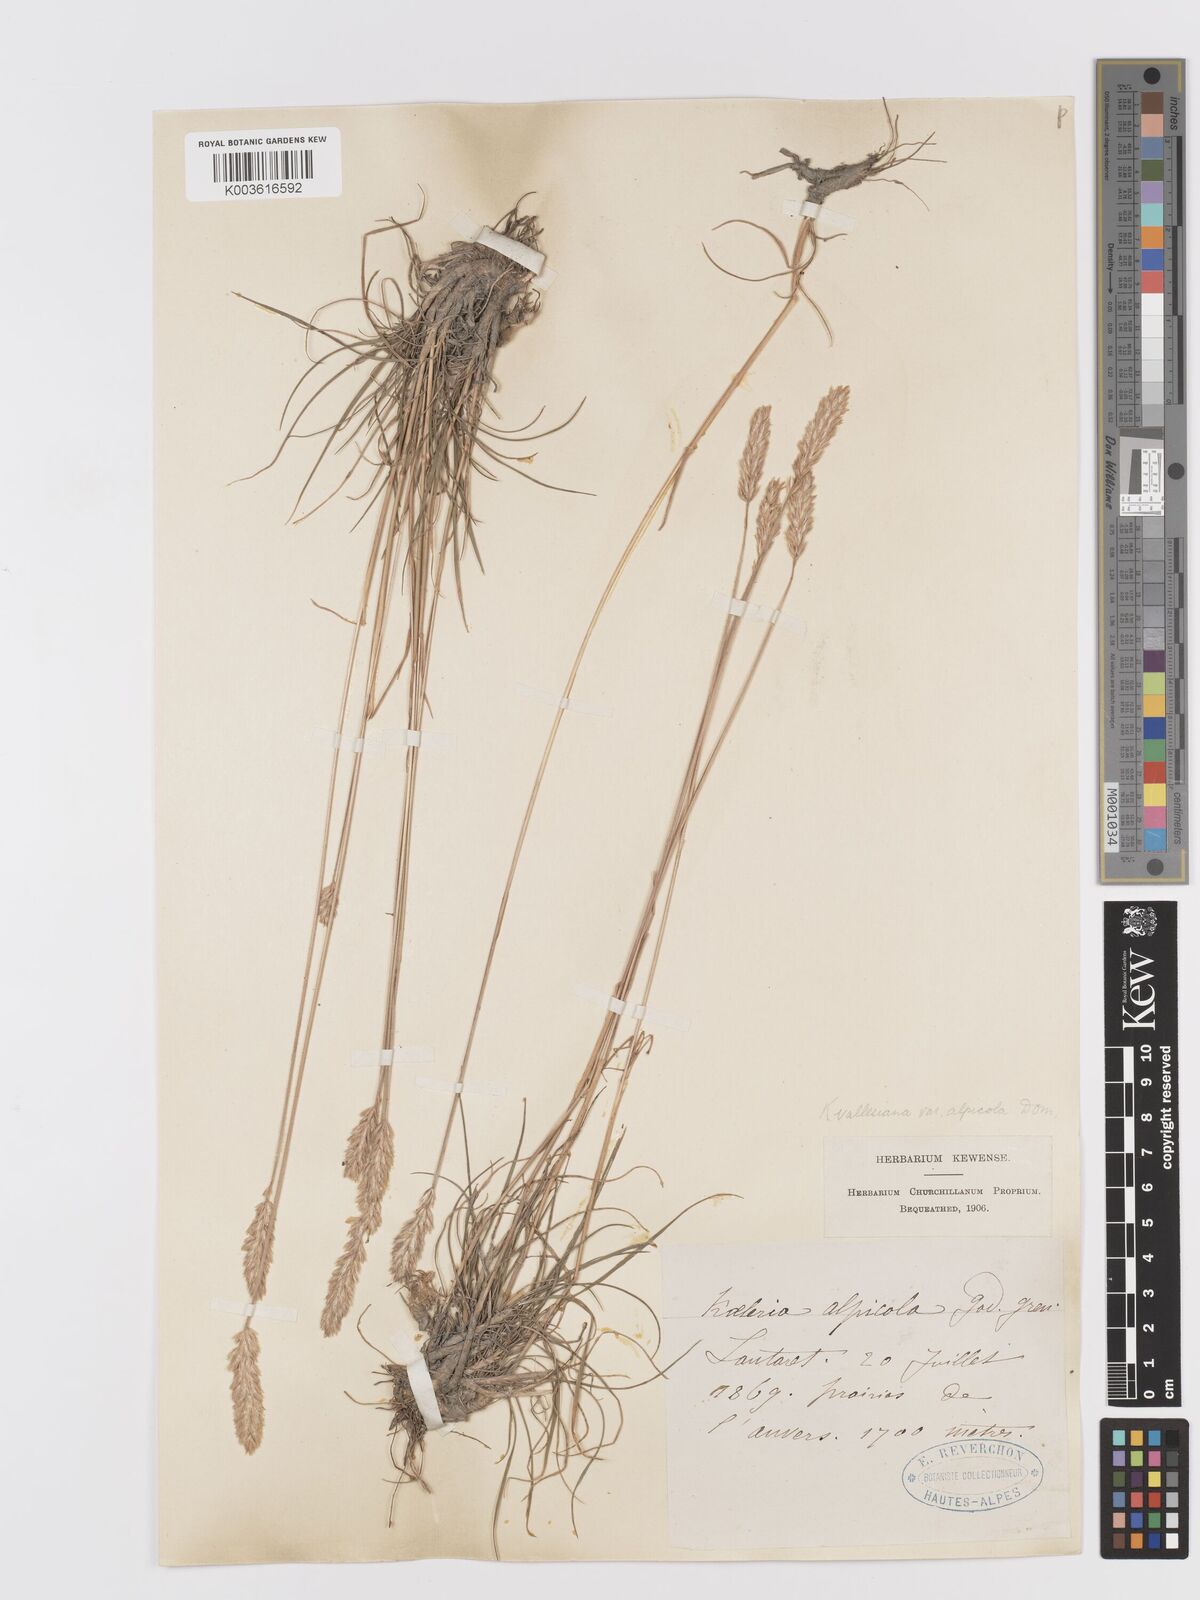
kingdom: Plantae
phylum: Tracheophyta
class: Liliopsida
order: Poales
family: Poaceae
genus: Koeleria
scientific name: Koeleria vallesiana
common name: Somerset hair-grass
